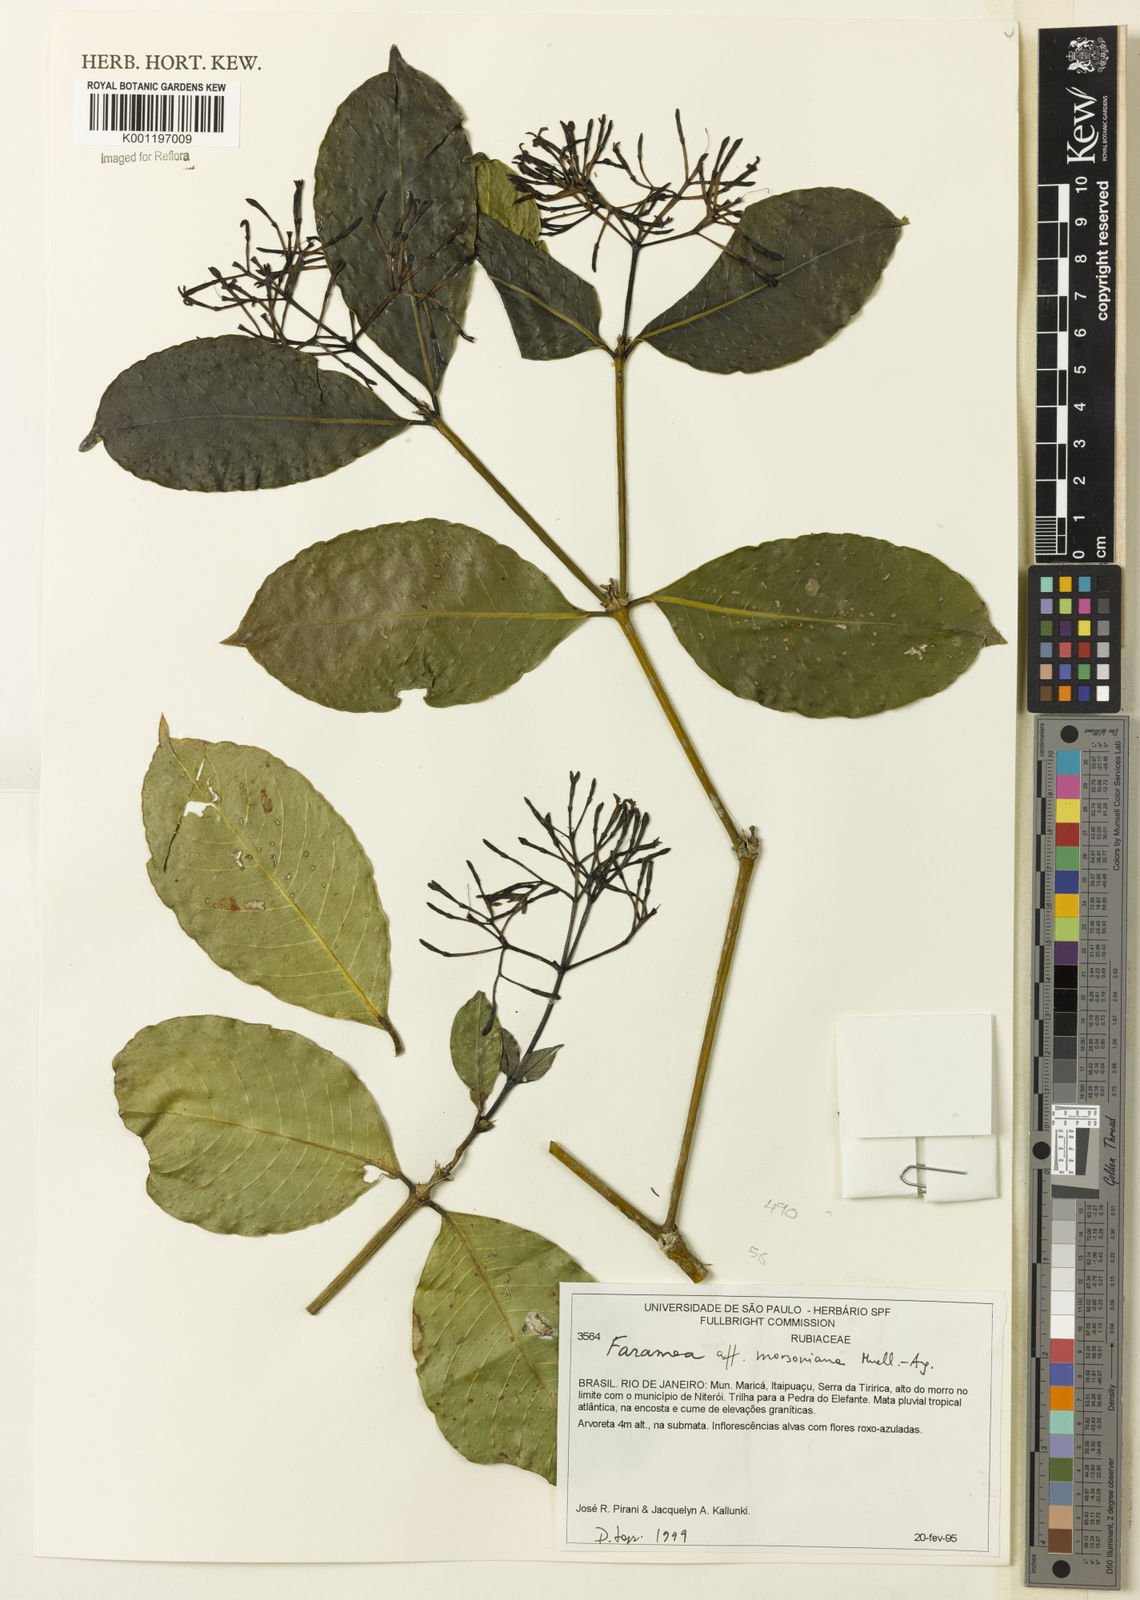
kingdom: Plantae
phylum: Tracheophyta
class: Magnoliopsida
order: Gentianales
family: Rubiaceae
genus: Faramea
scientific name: Faramea
